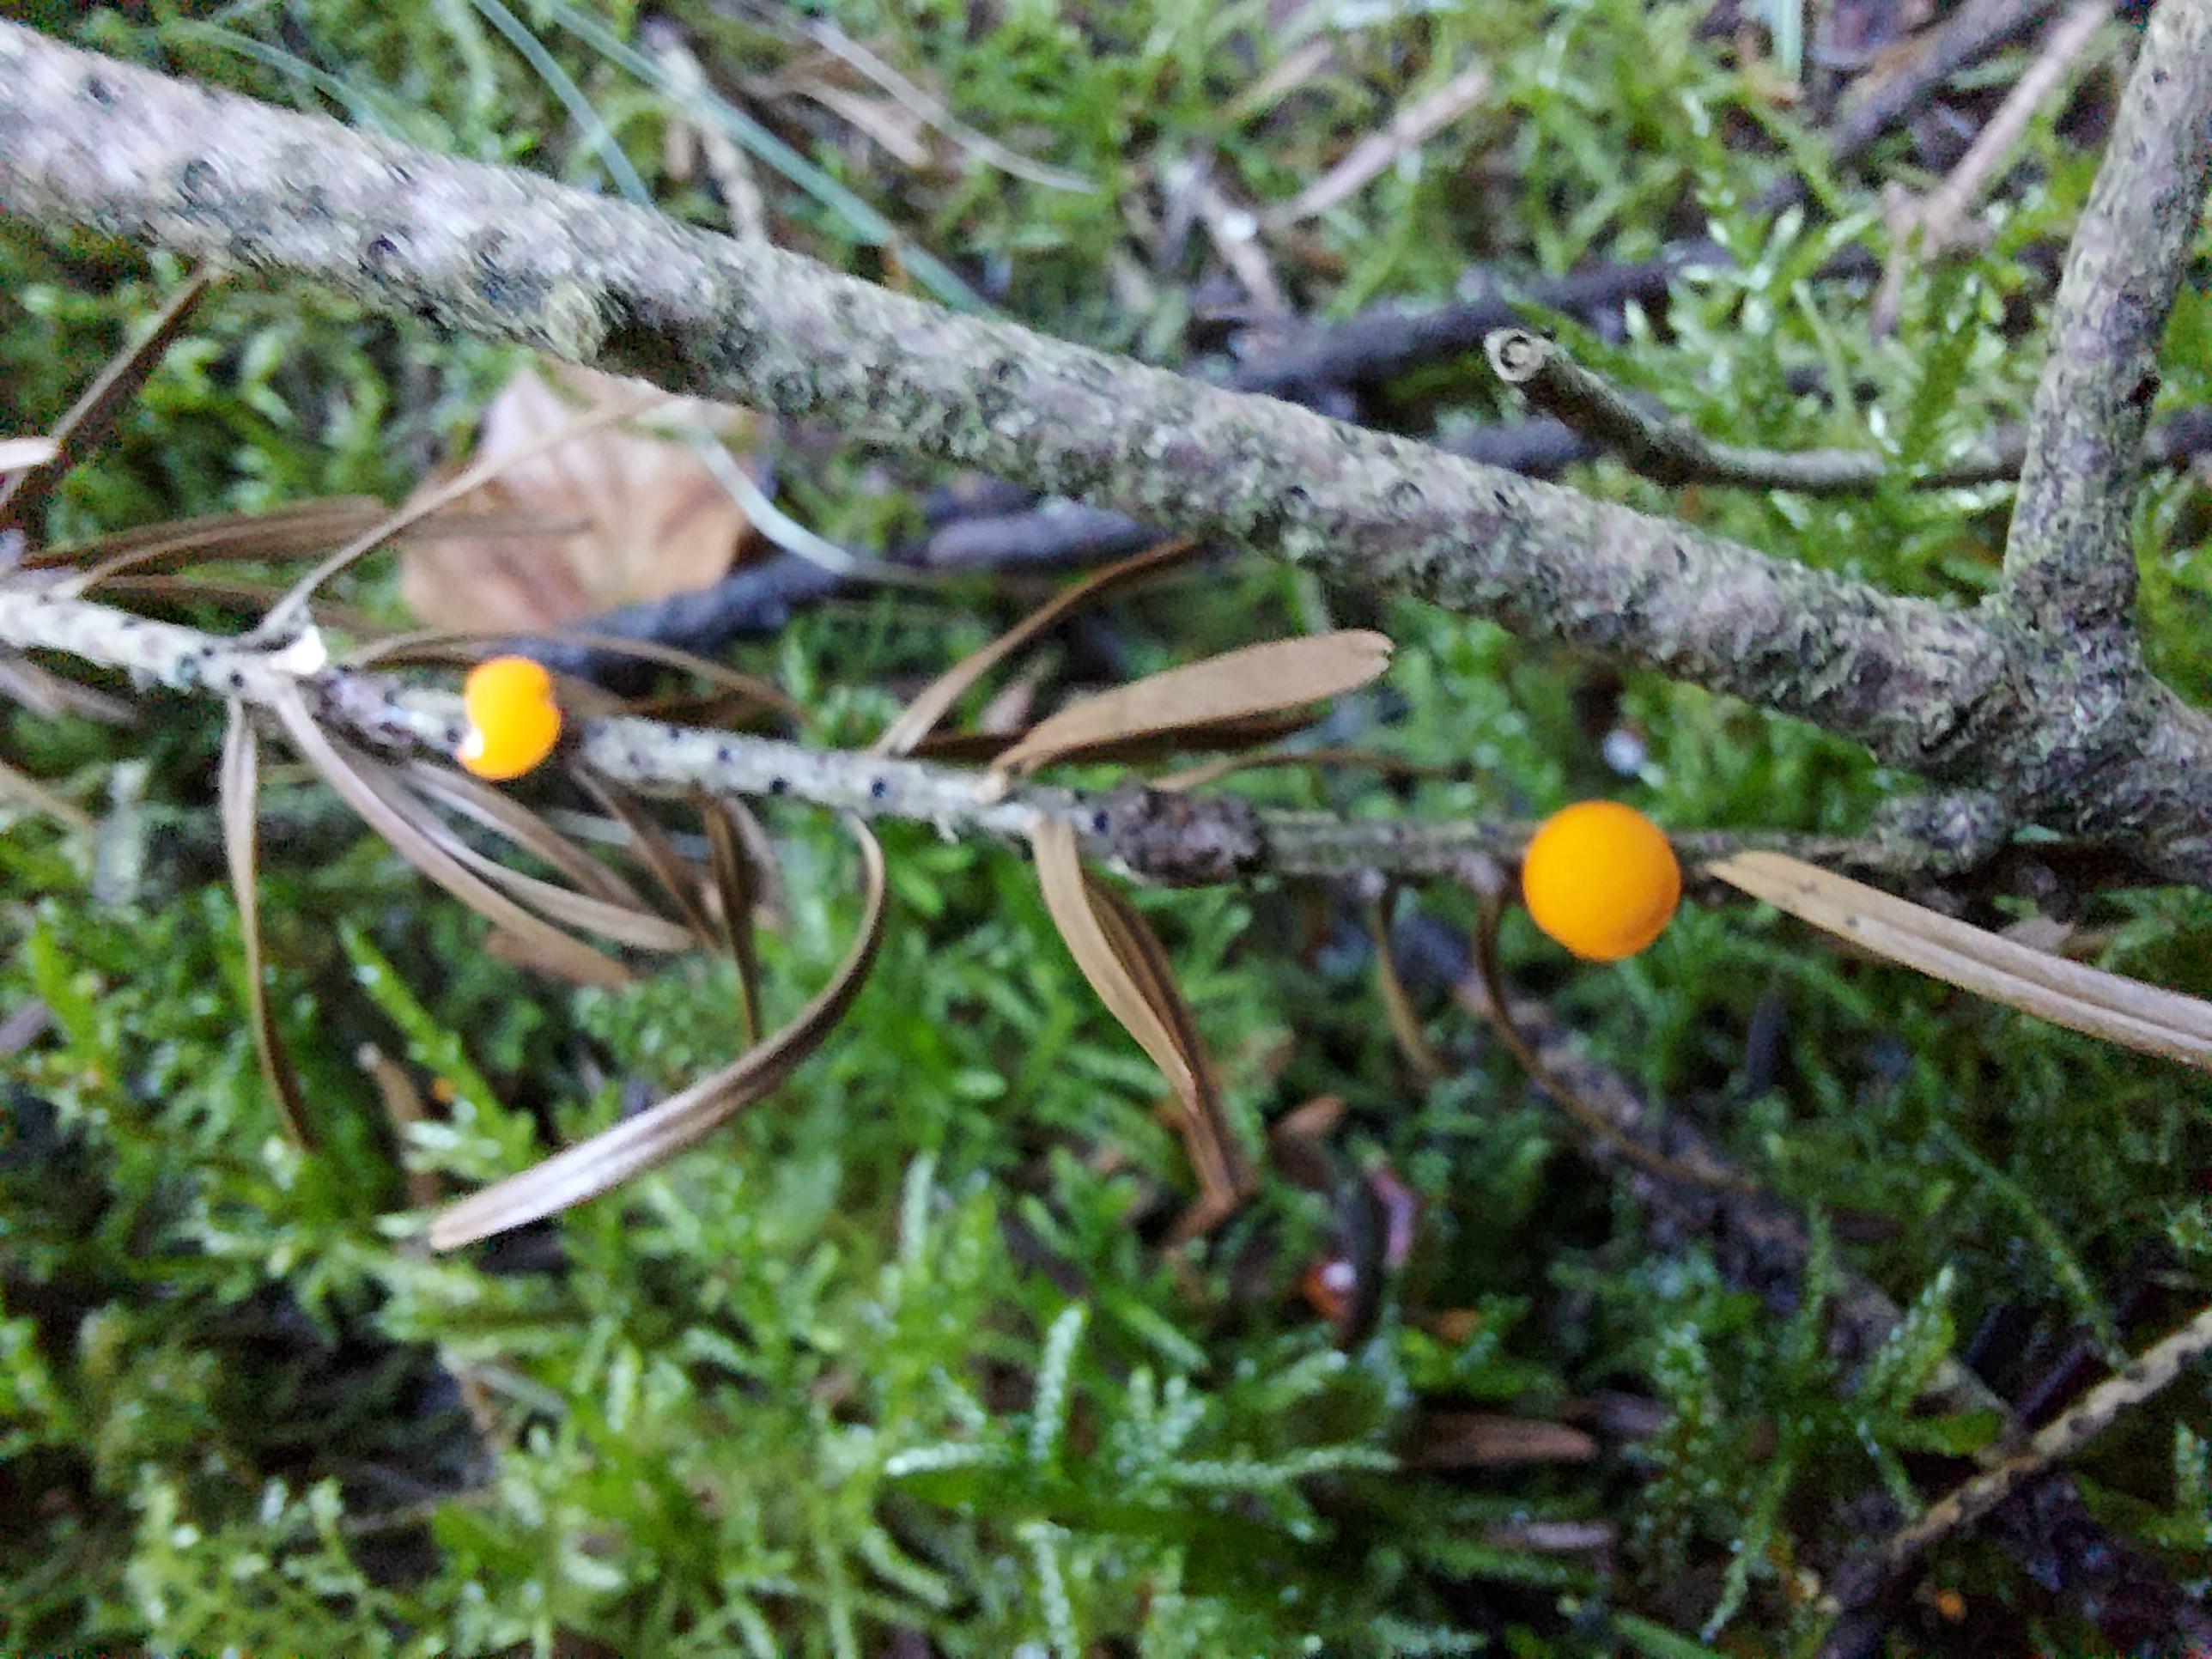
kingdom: Fungi
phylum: Ascomycota
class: Pezizomycetes
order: Pezizales
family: Sarcoscyphaceae
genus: Pithya
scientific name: Pithya vulgaris
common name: stor dukatbæger
